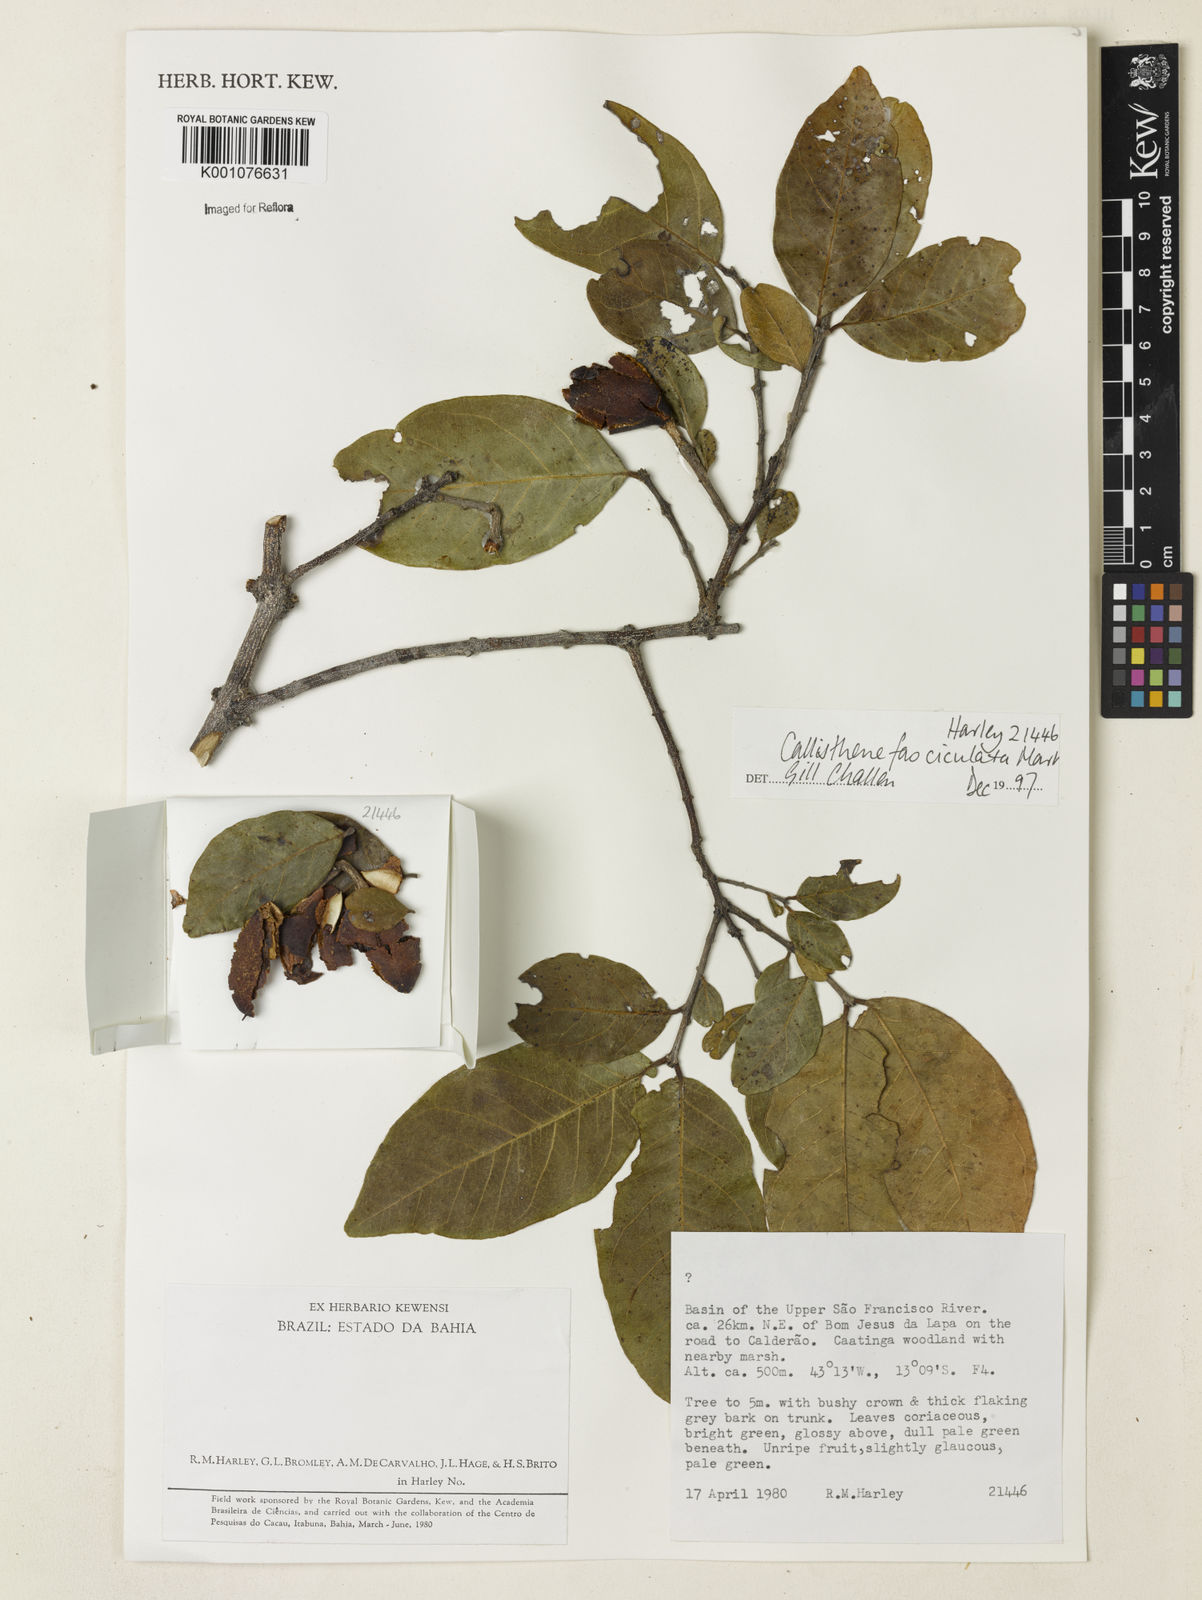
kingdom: Plantae
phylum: Tracheophyta
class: Magnoliopsida
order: Myrtales
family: Vochysiaceae
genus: Callisthene
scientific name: Callisthene fasciculata
